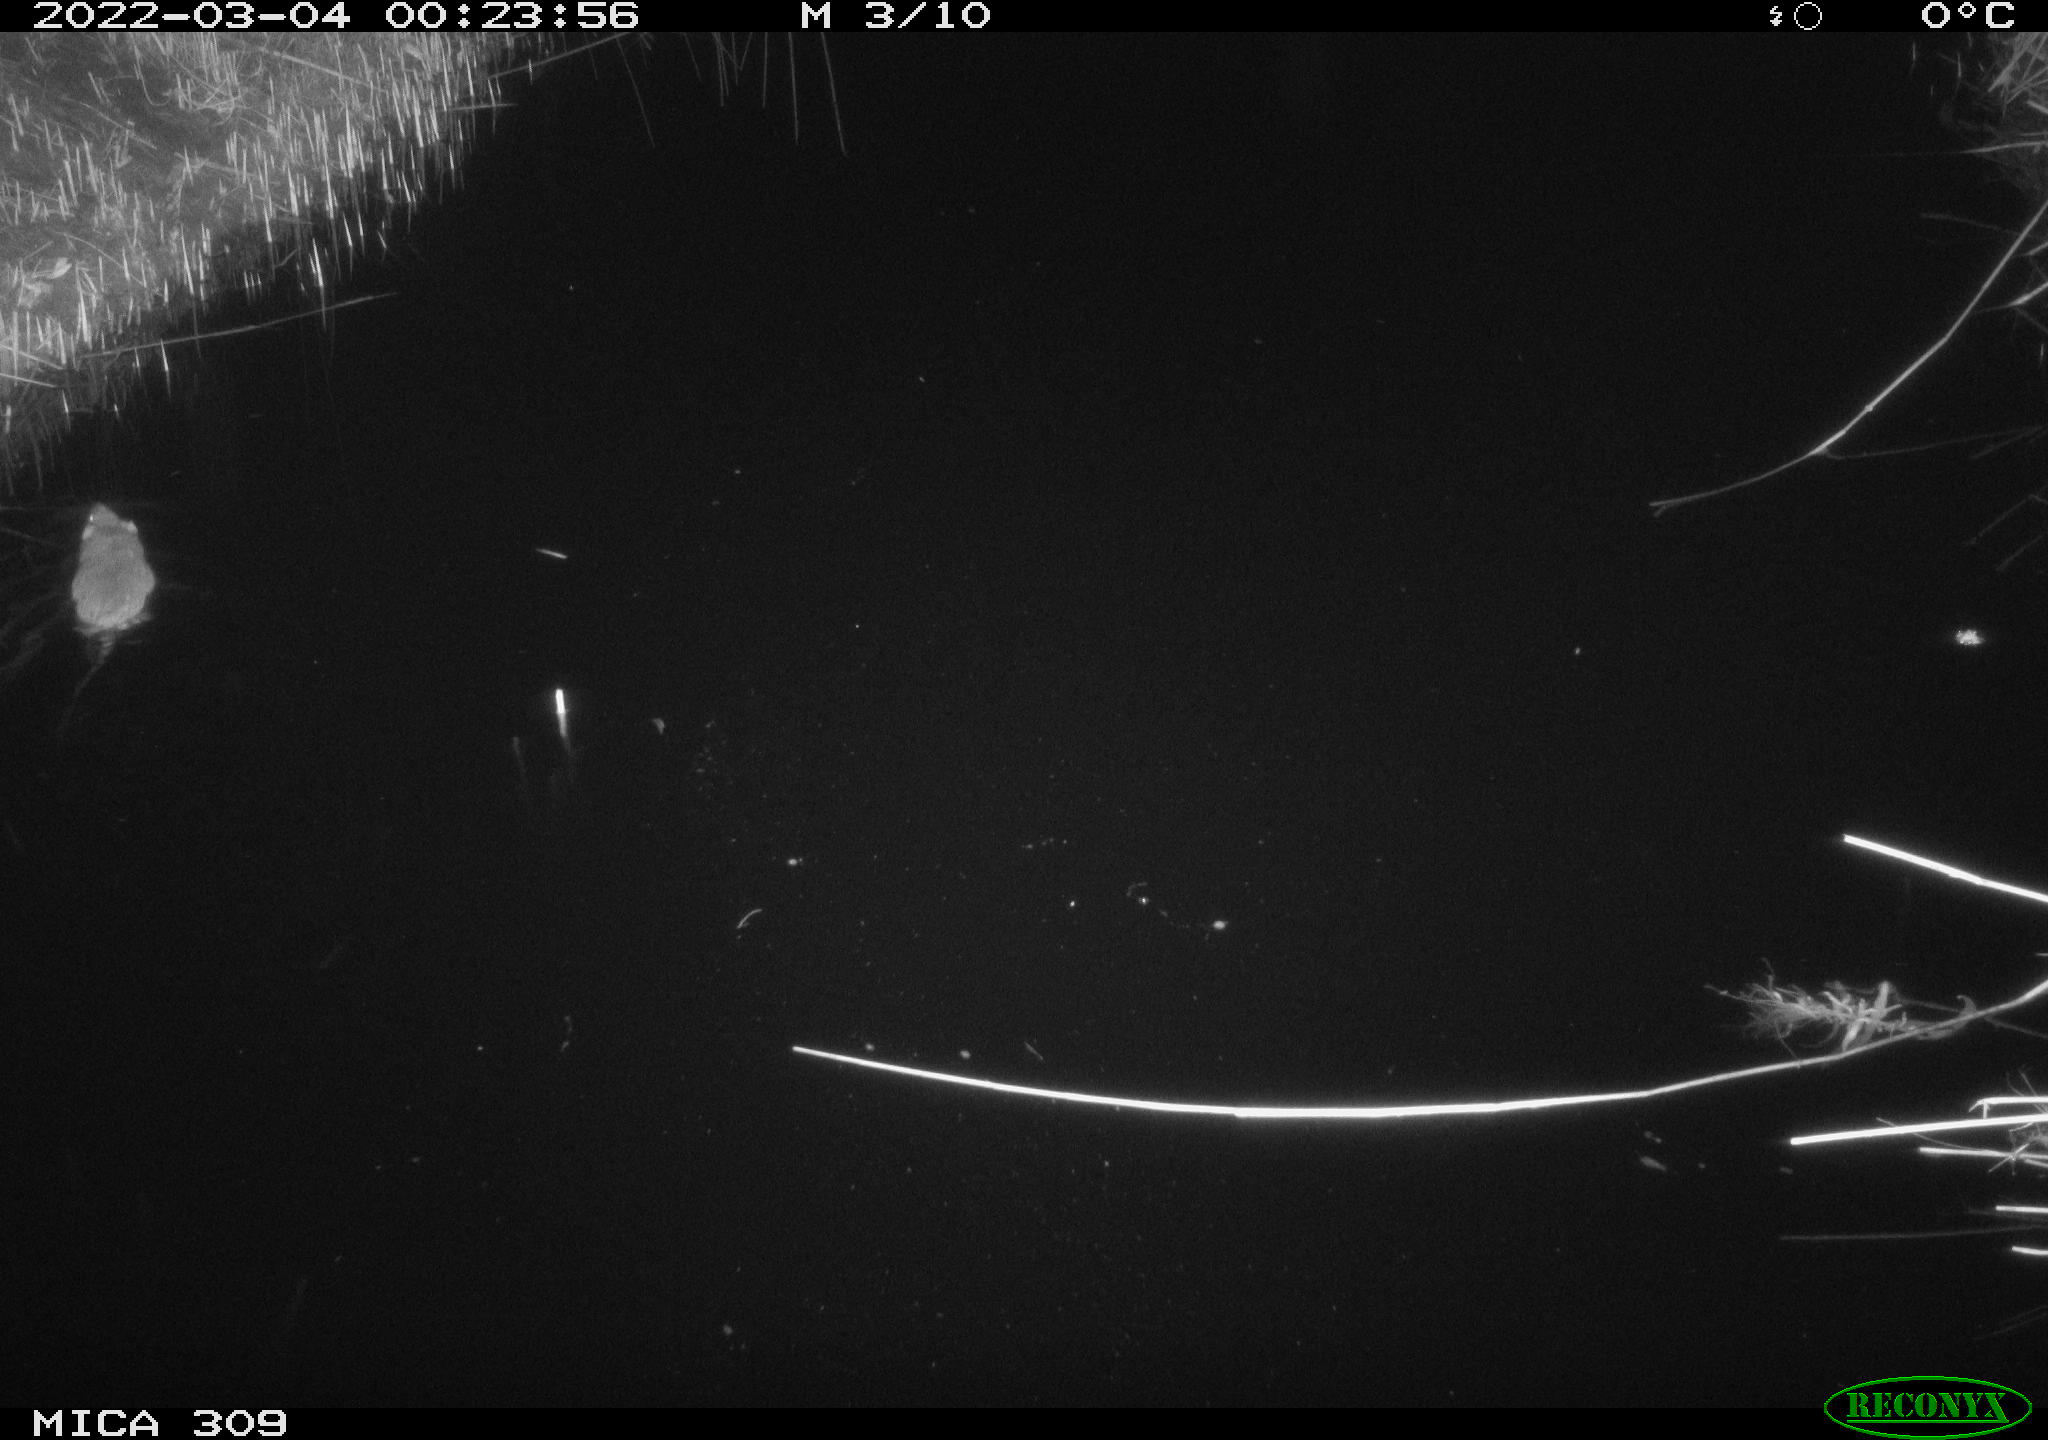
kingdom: Animalia
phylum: Chordata
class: Mammalia
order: Rodentia
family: Muridae
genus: Rattus
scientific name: Rattus norvegicus
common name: Brown rat
